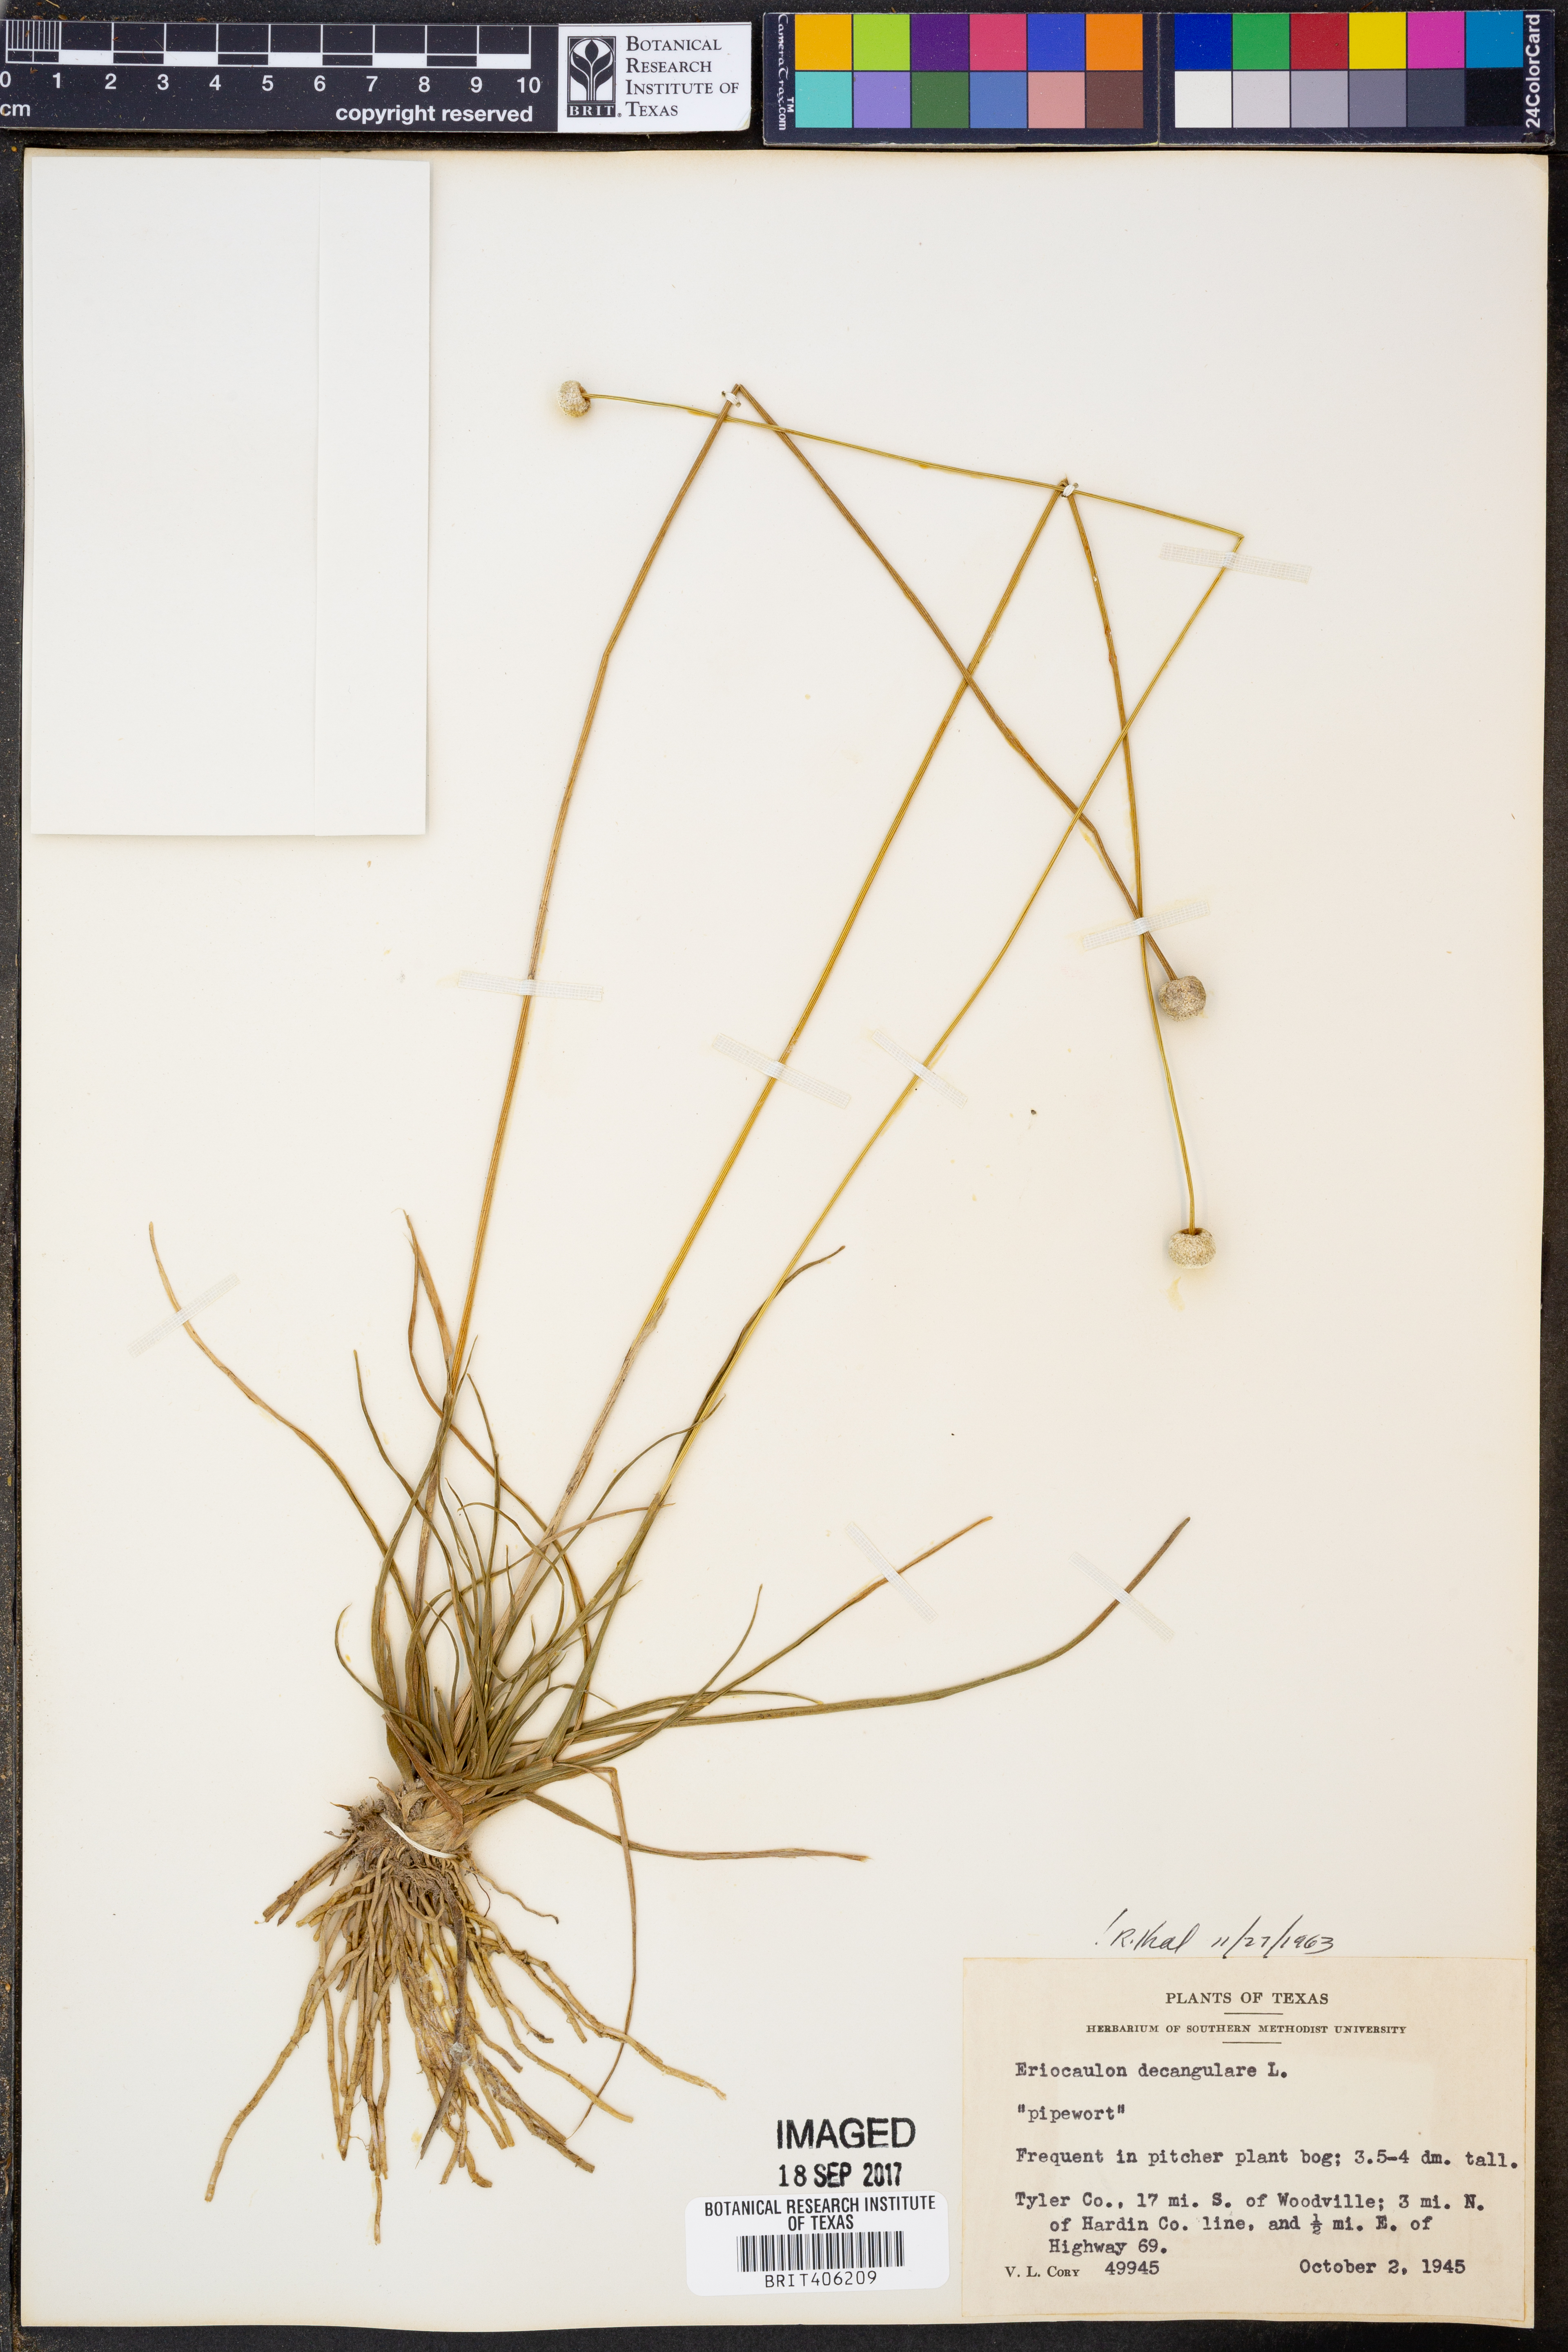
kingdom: Plantae
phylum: Tracheophyta
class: Liliopsida
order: Poales
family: Eriocaulaceae
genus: Eriocaulon
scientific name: Eriocaulon decangulare
